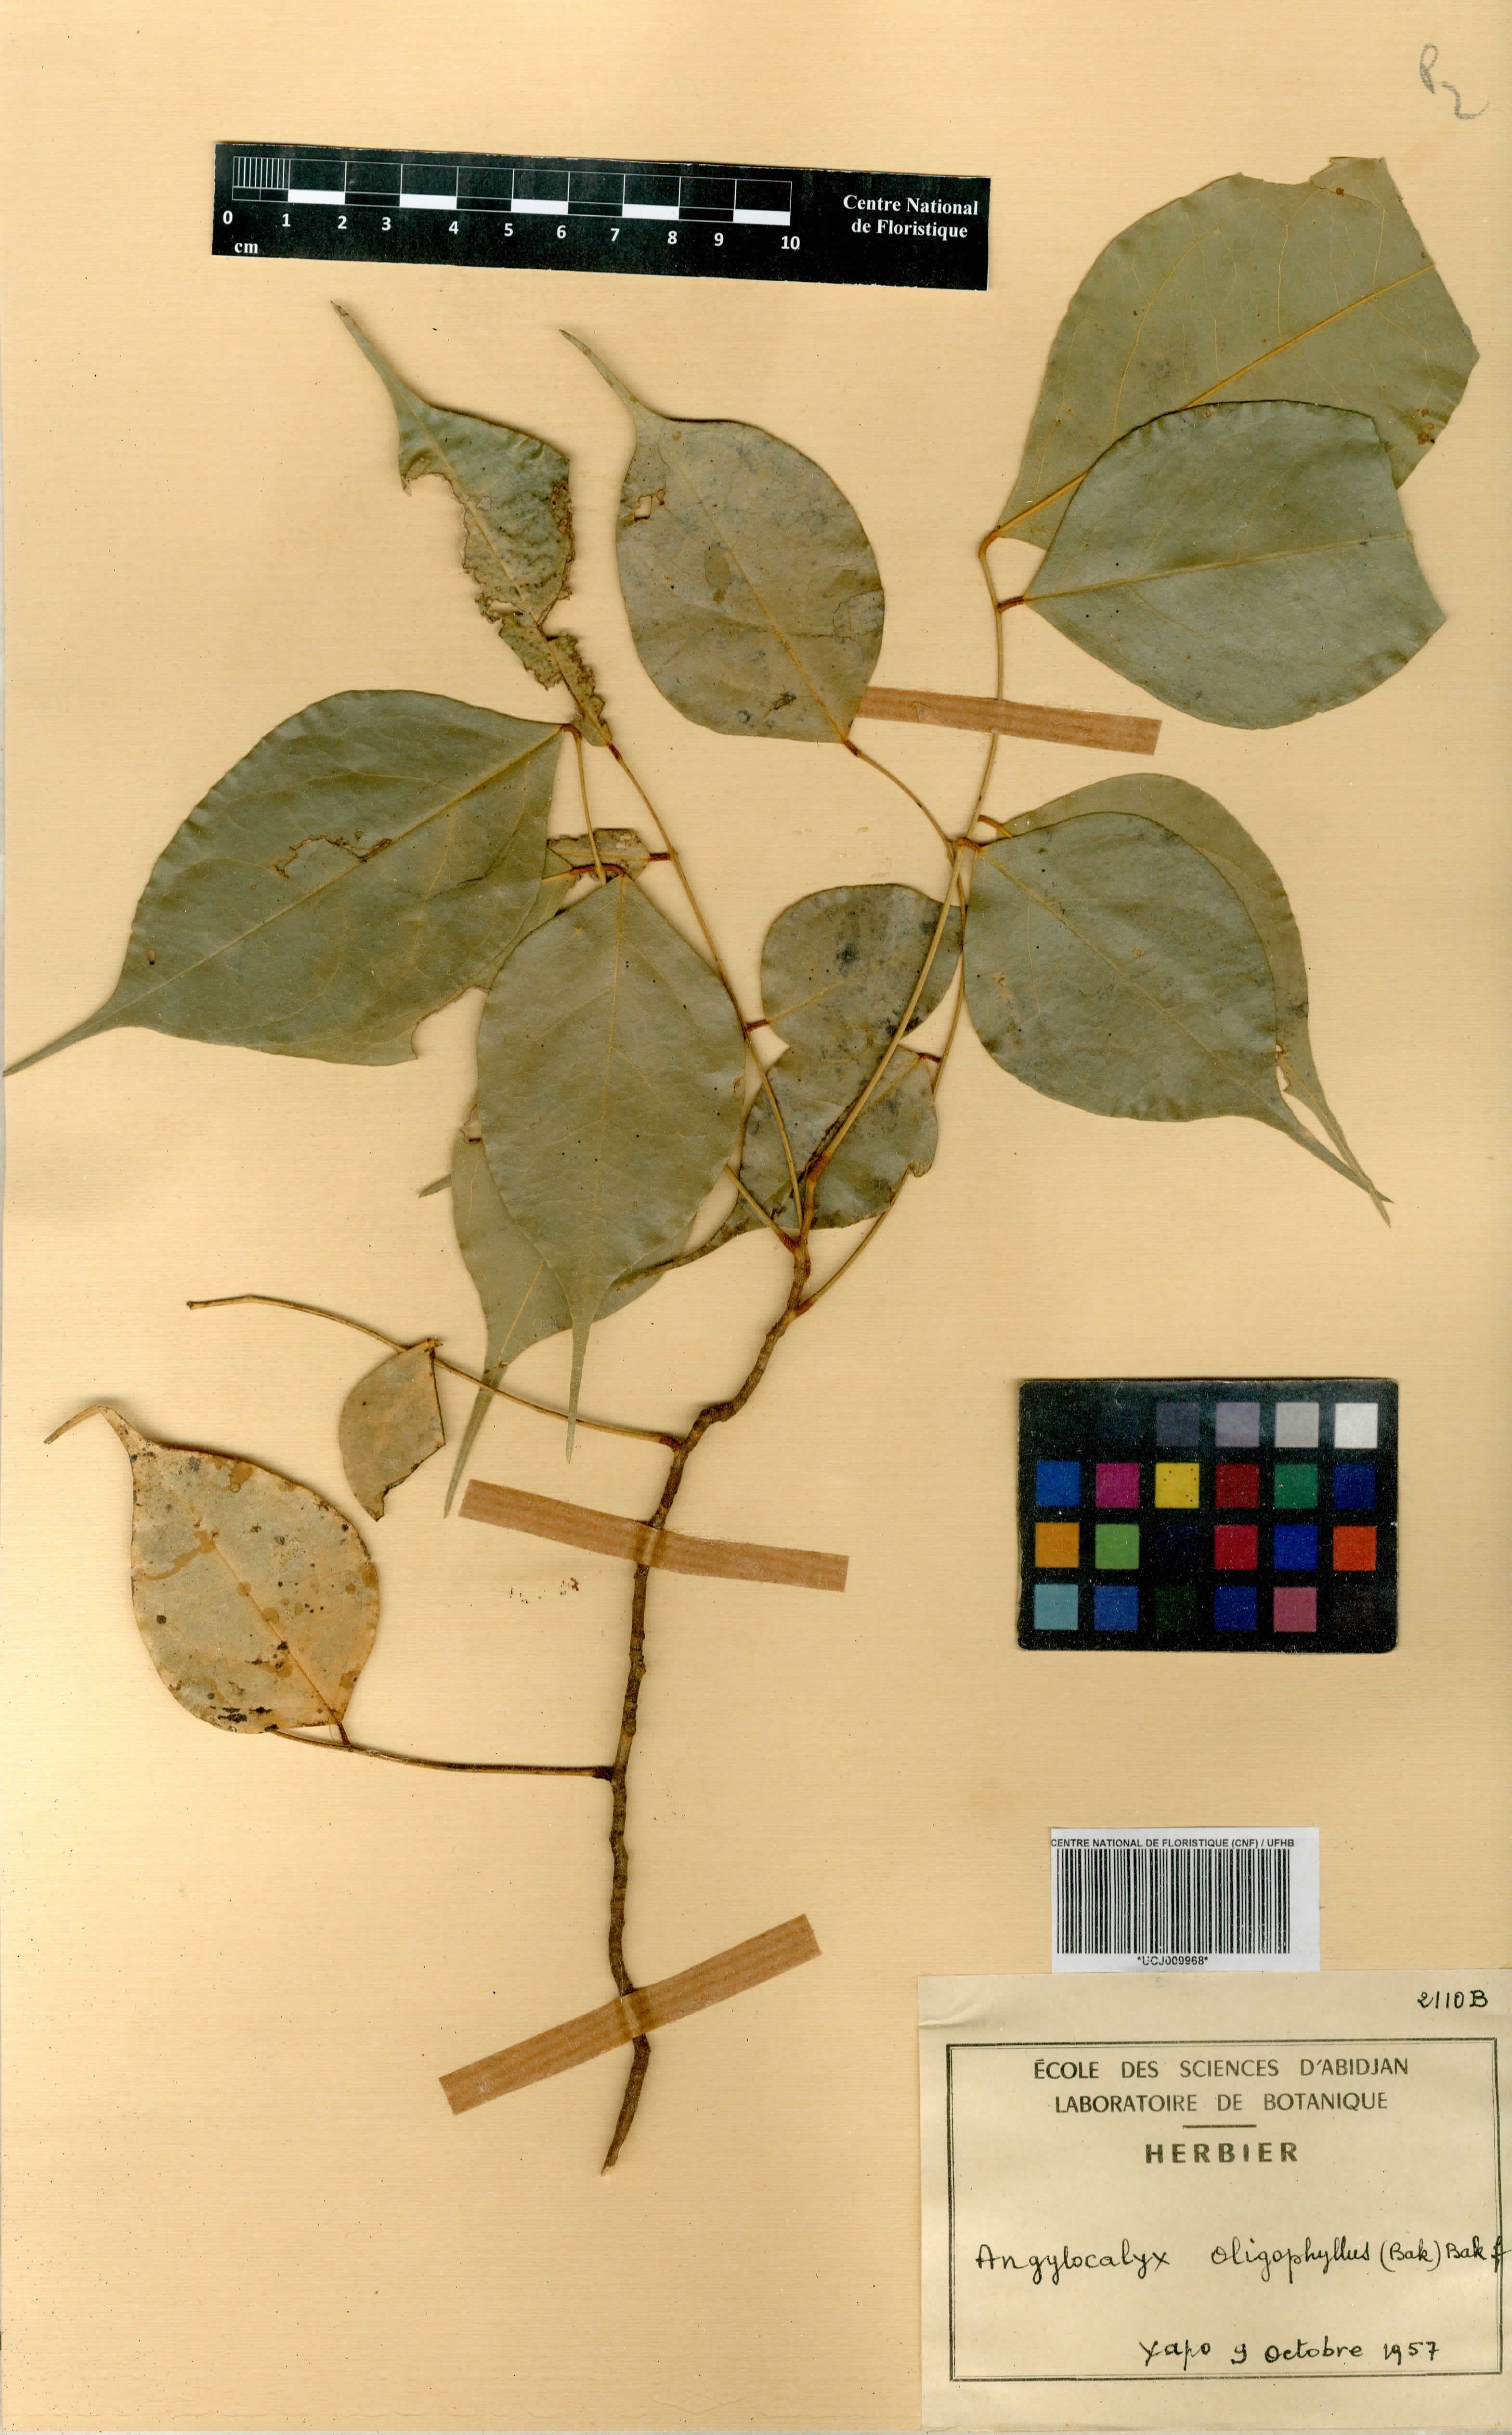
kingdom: Plantae
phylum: Tracheophyta
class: Magnoliopsida
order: Fabales
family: Fabaceae
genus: Angylocalyx
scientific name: Angylocalyx oligophyllus
